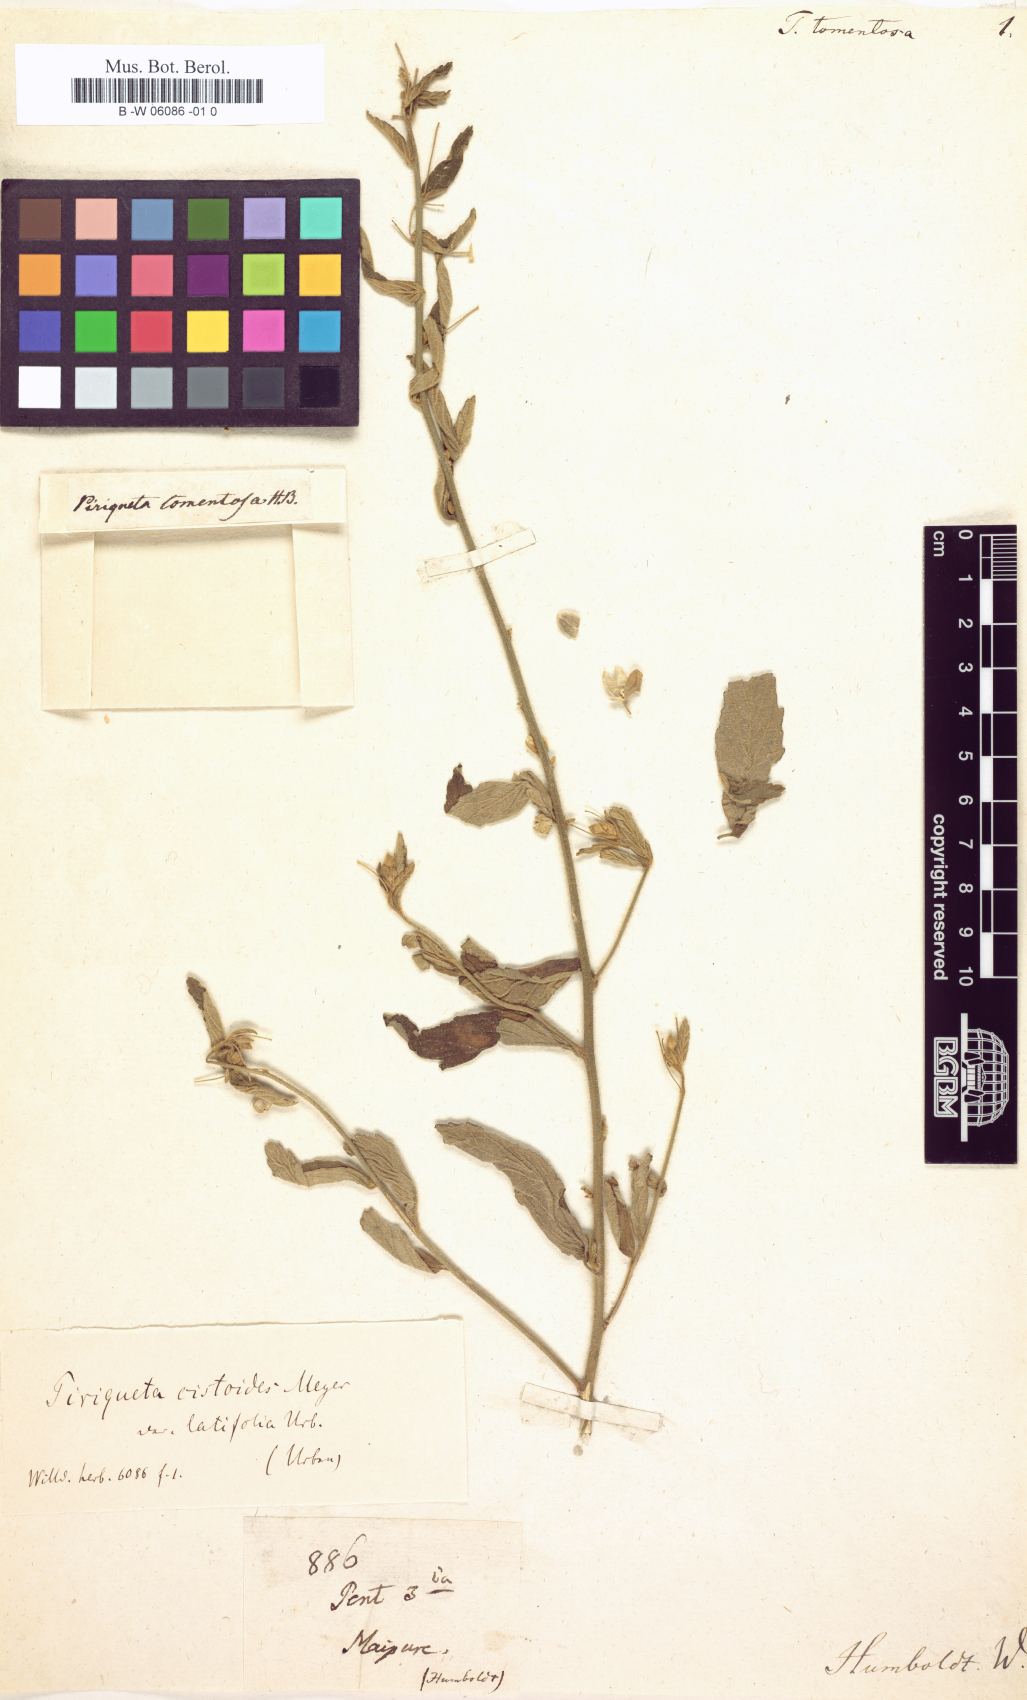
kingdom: Plantae
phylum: Tracheophyta
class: Magnoliopsida
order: Malpighiales
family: Turneraceae
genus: Piriqueta
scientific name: Piriqueta cistoides
